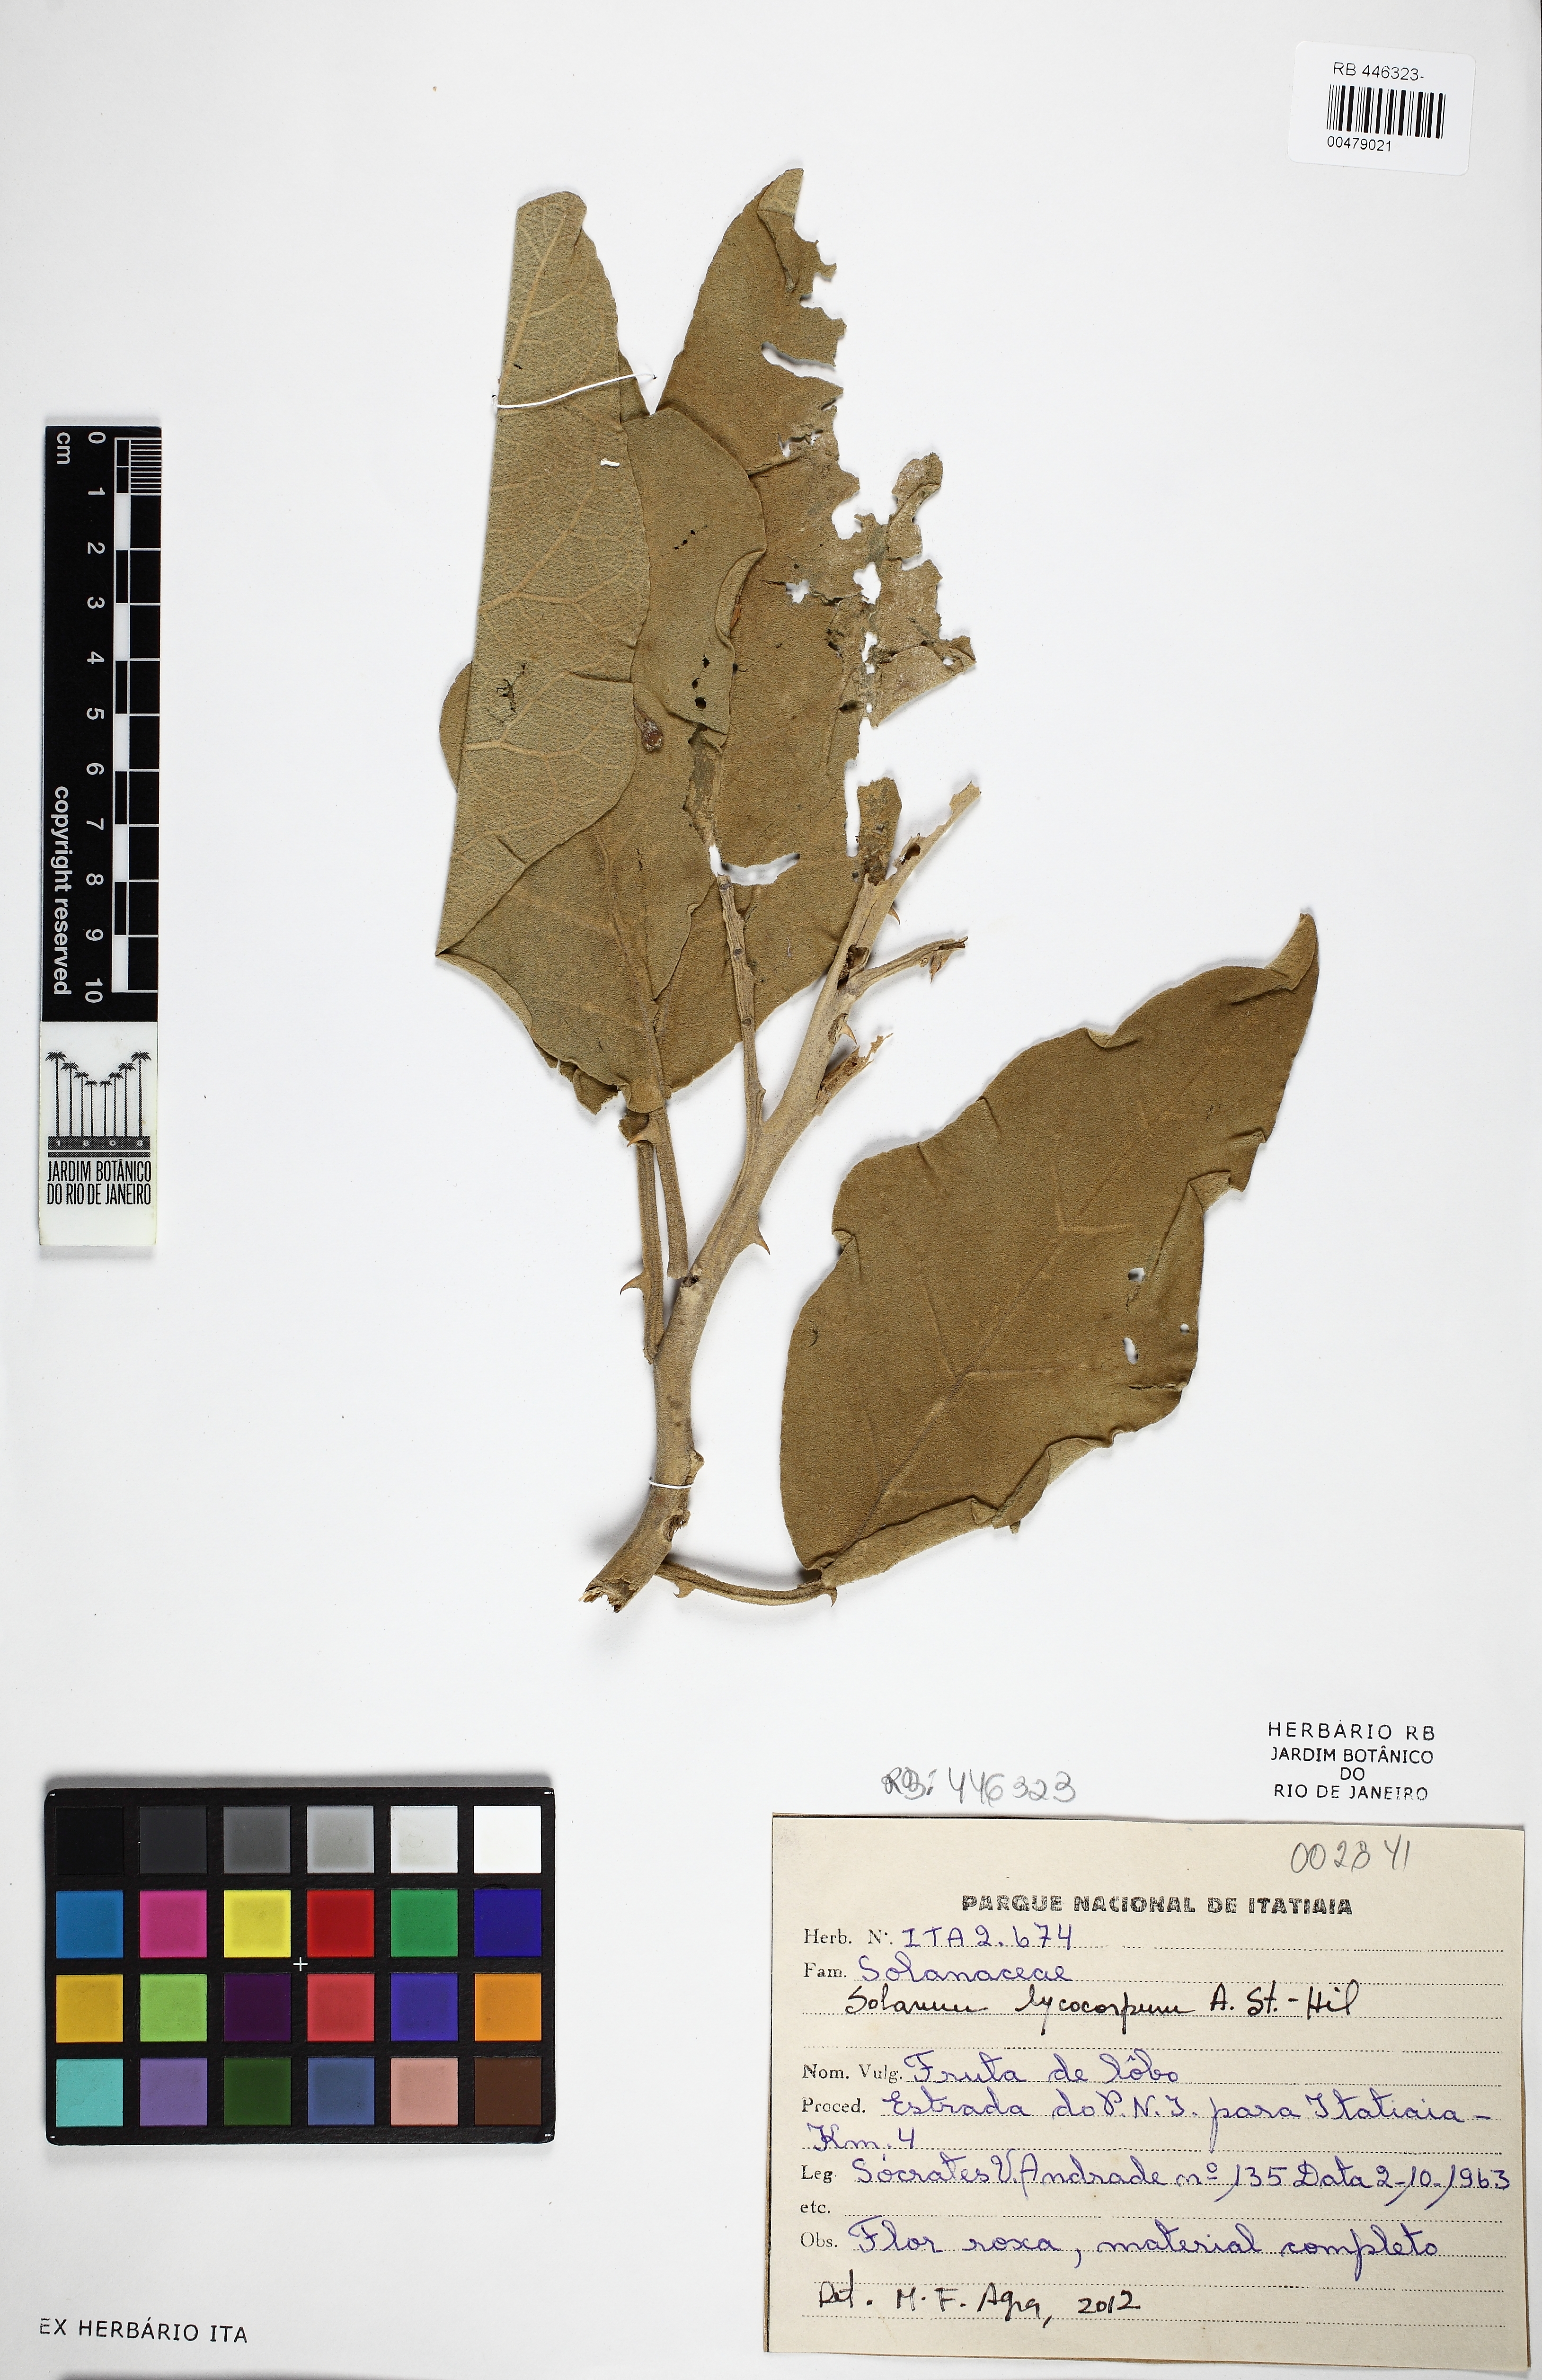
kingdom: Plantae
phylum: Tracheophyta
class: Magnoliopsida
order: Solanales
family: Solanaceae
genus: Solanum
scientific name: Solanum lycocarpum
